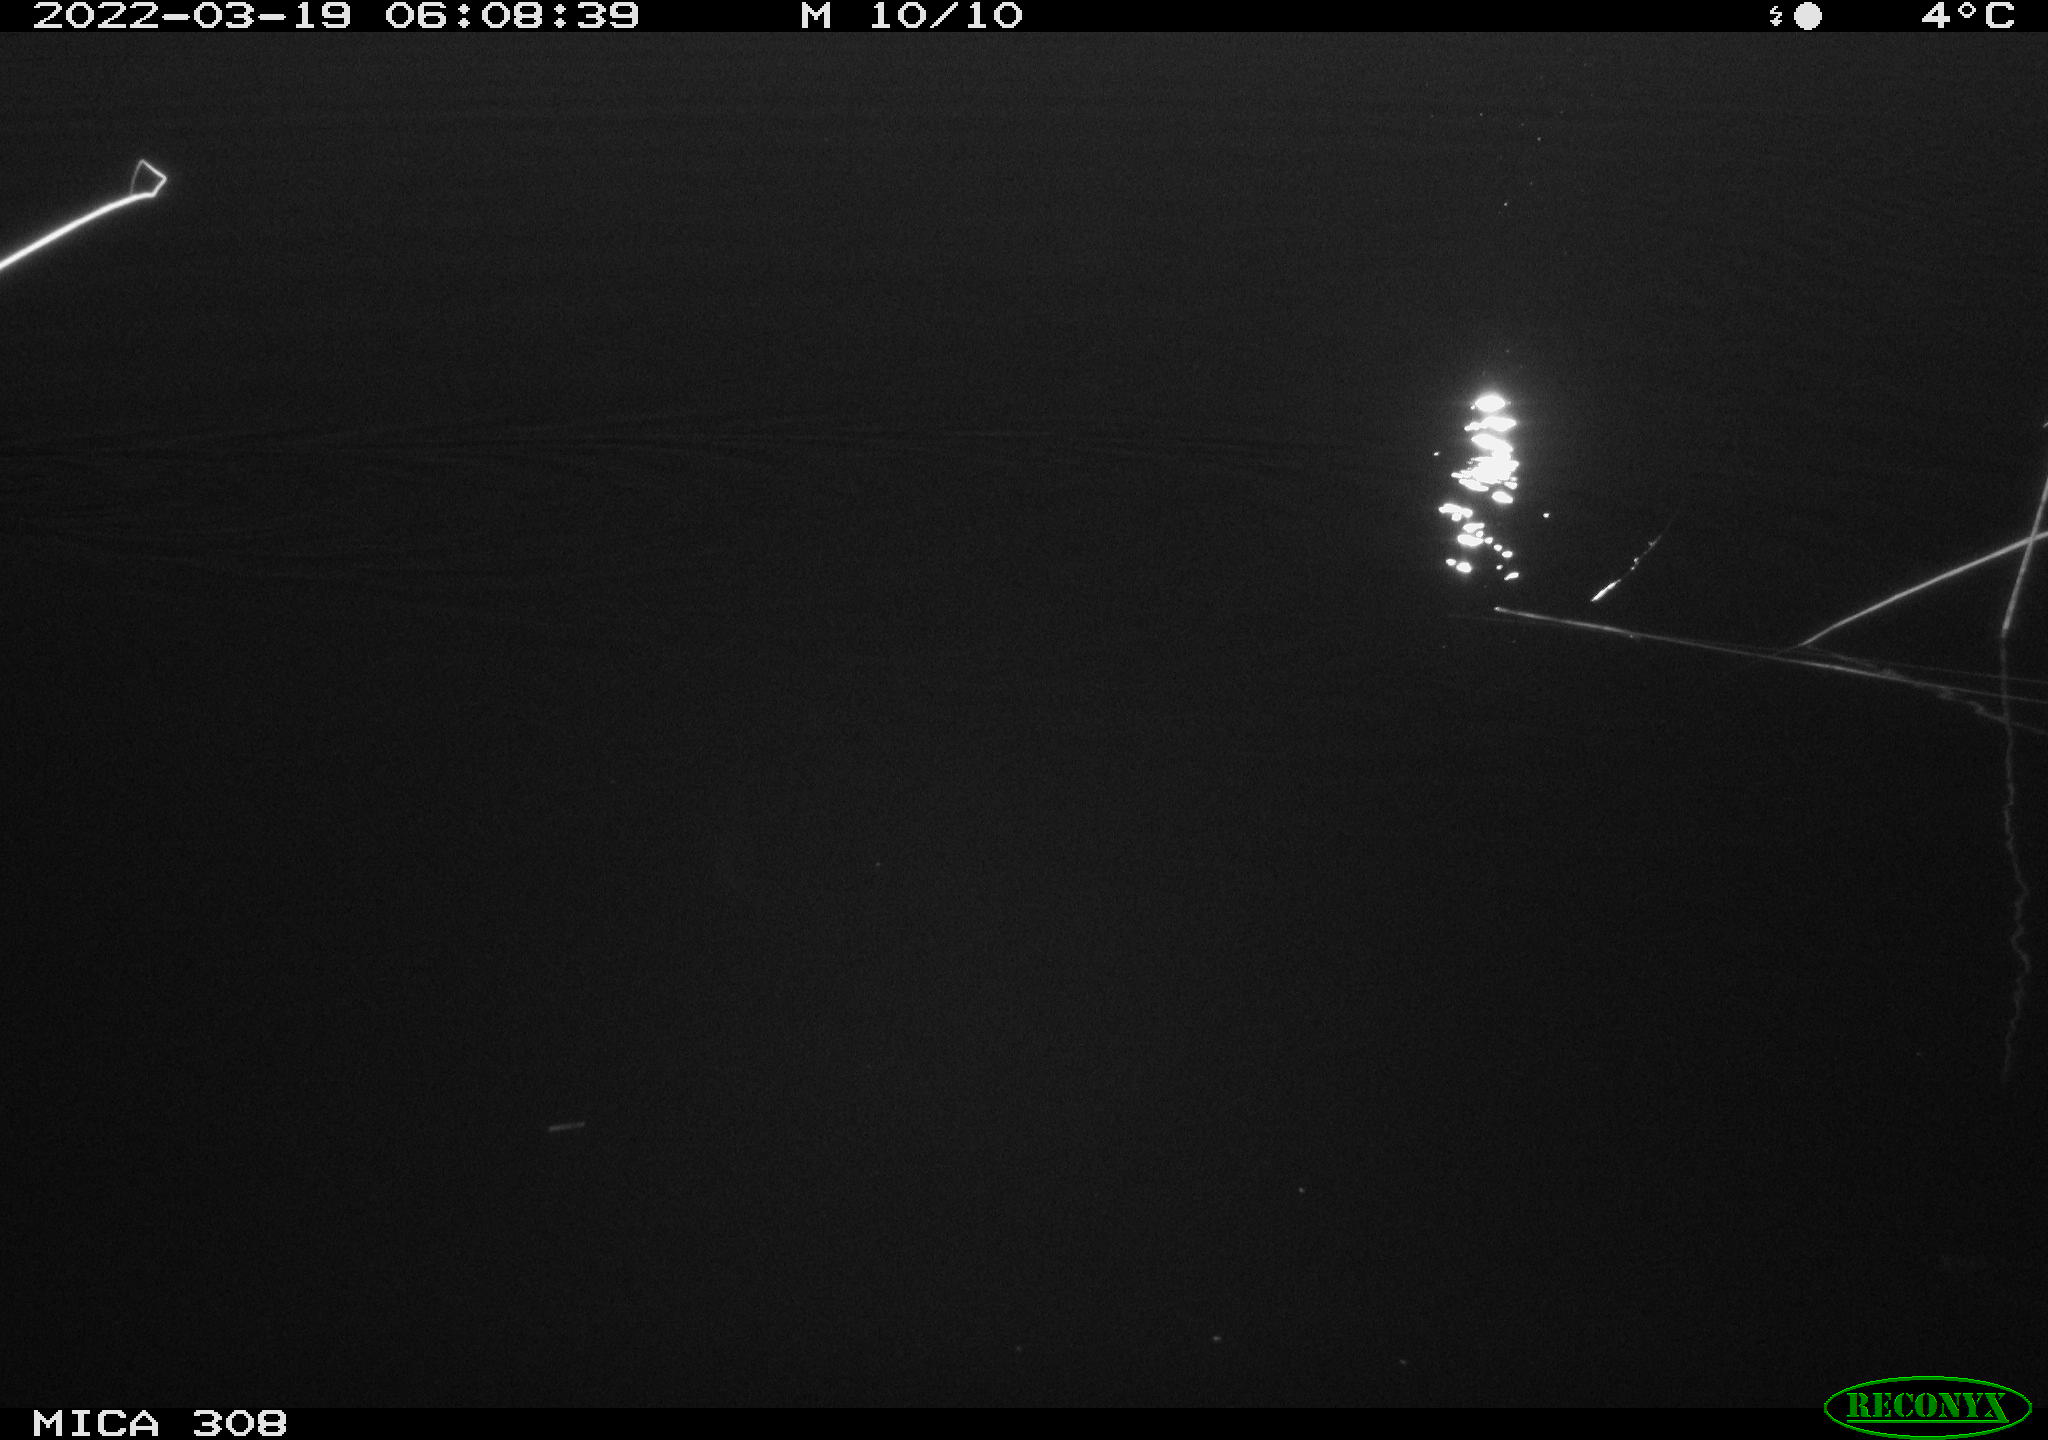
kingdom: Animalia
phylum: Chordata
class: Mammalia
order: Rodentia
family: Cricetidae
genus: Ondatra
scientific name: Ondatra zibethicus
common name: Muskrat
